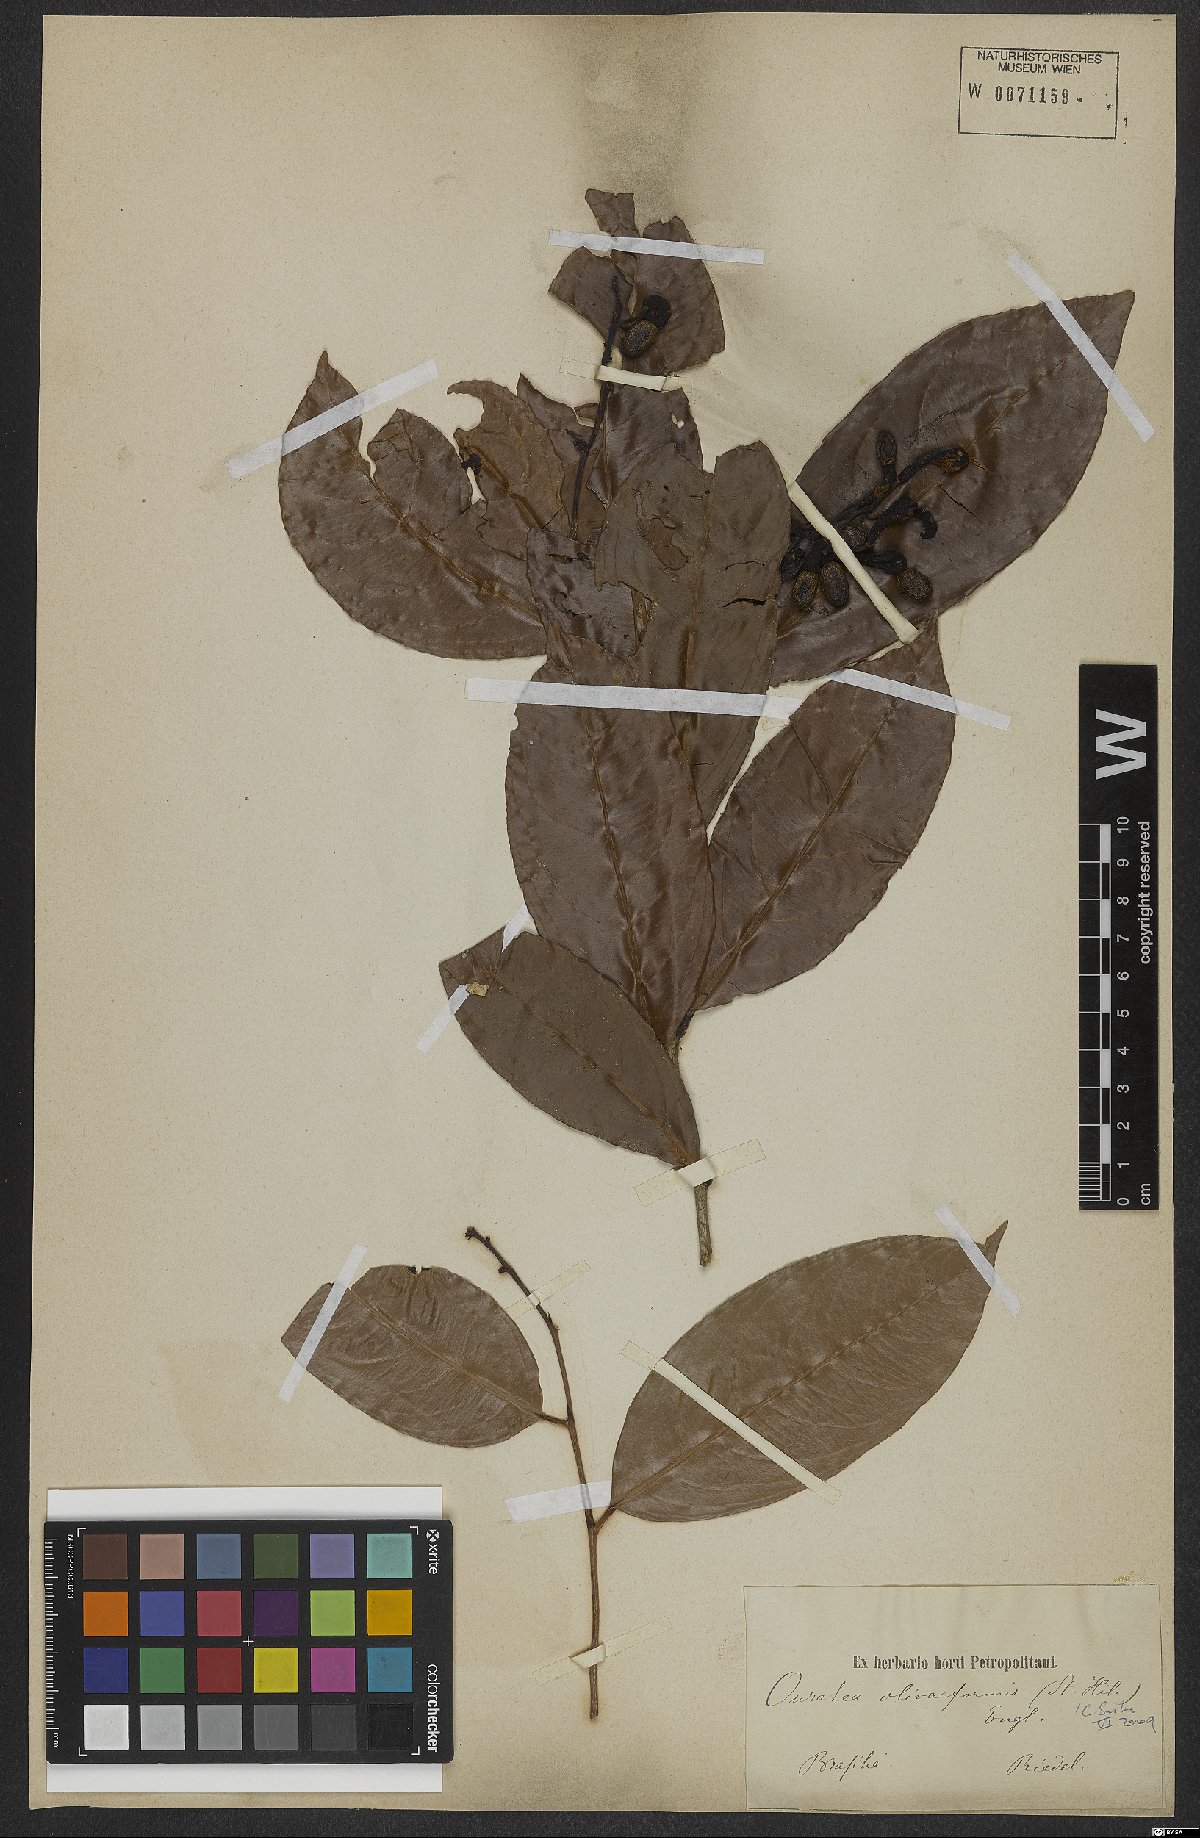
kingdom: Plantae
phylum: Tracheophyta
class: Magnoliopsida
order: Malpighiales
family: Ochnaceae
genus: Ouratea
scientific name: Ouratea oliviformis
